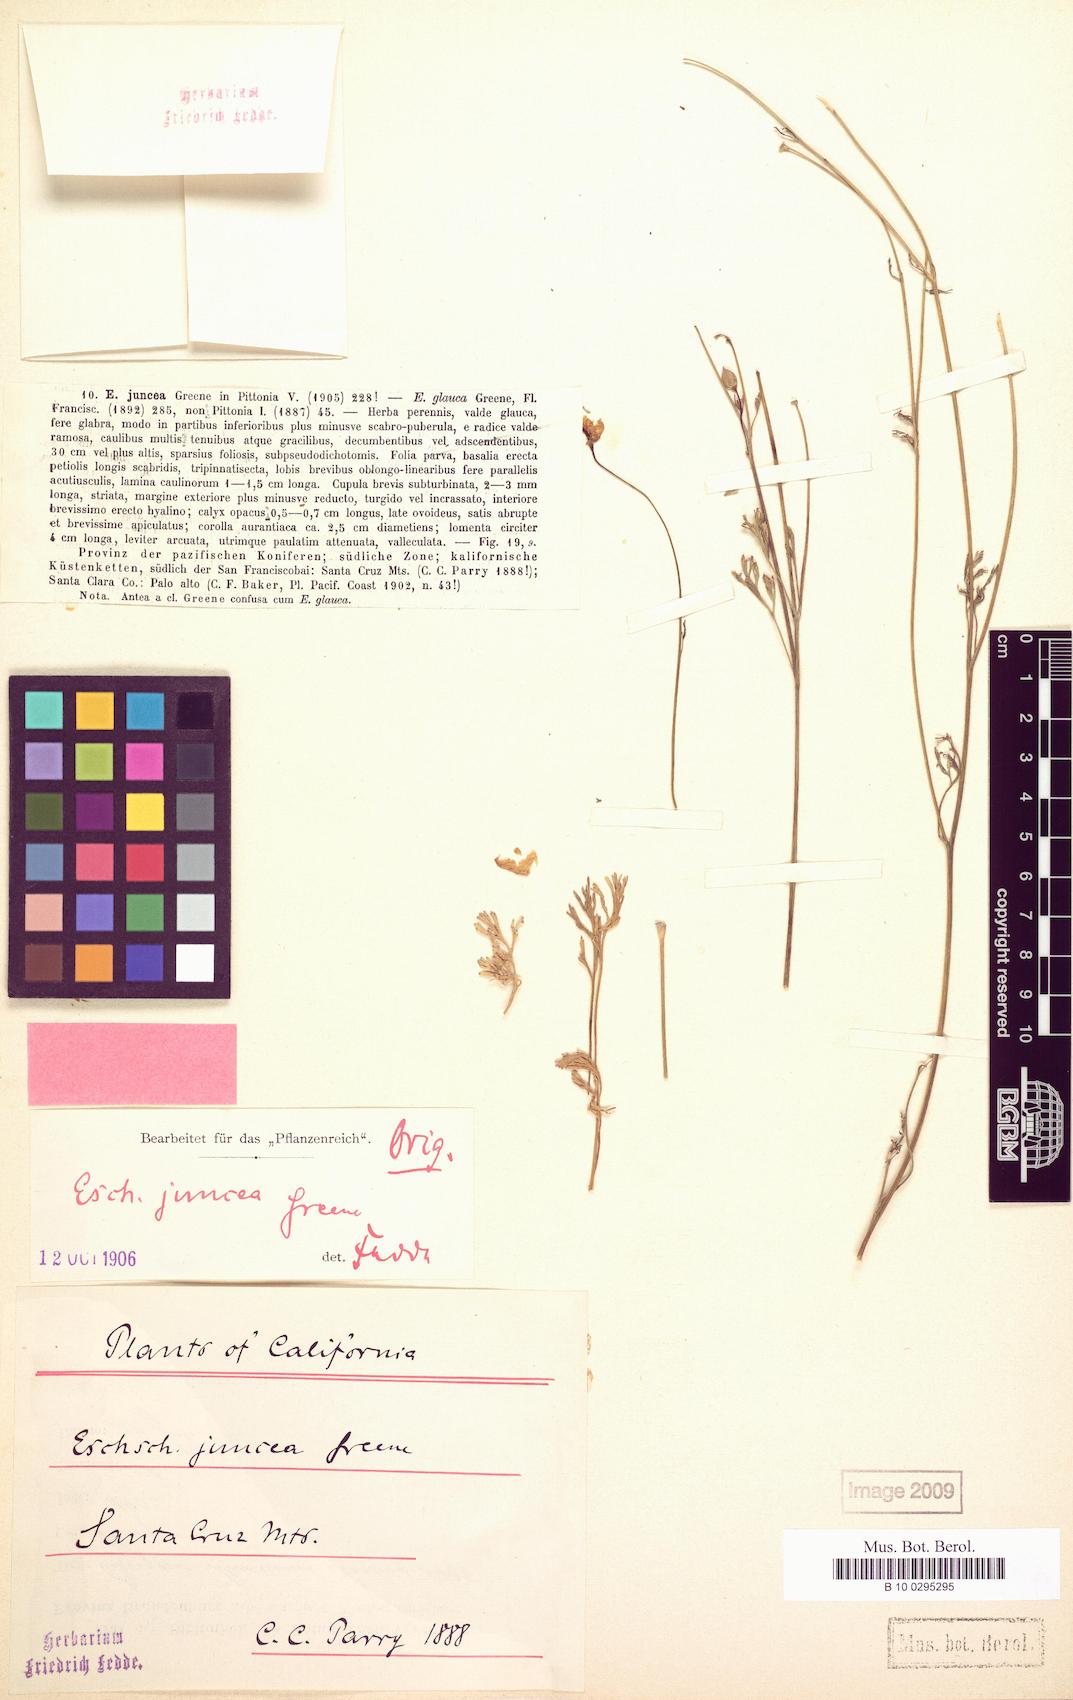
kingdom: Plantae
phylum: Tracheophyta
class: Magnoliopsida
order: Ranunculales
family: Papaveraceae
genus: Eschscholzia
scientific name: Eschscholzia californica
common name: California poppy
